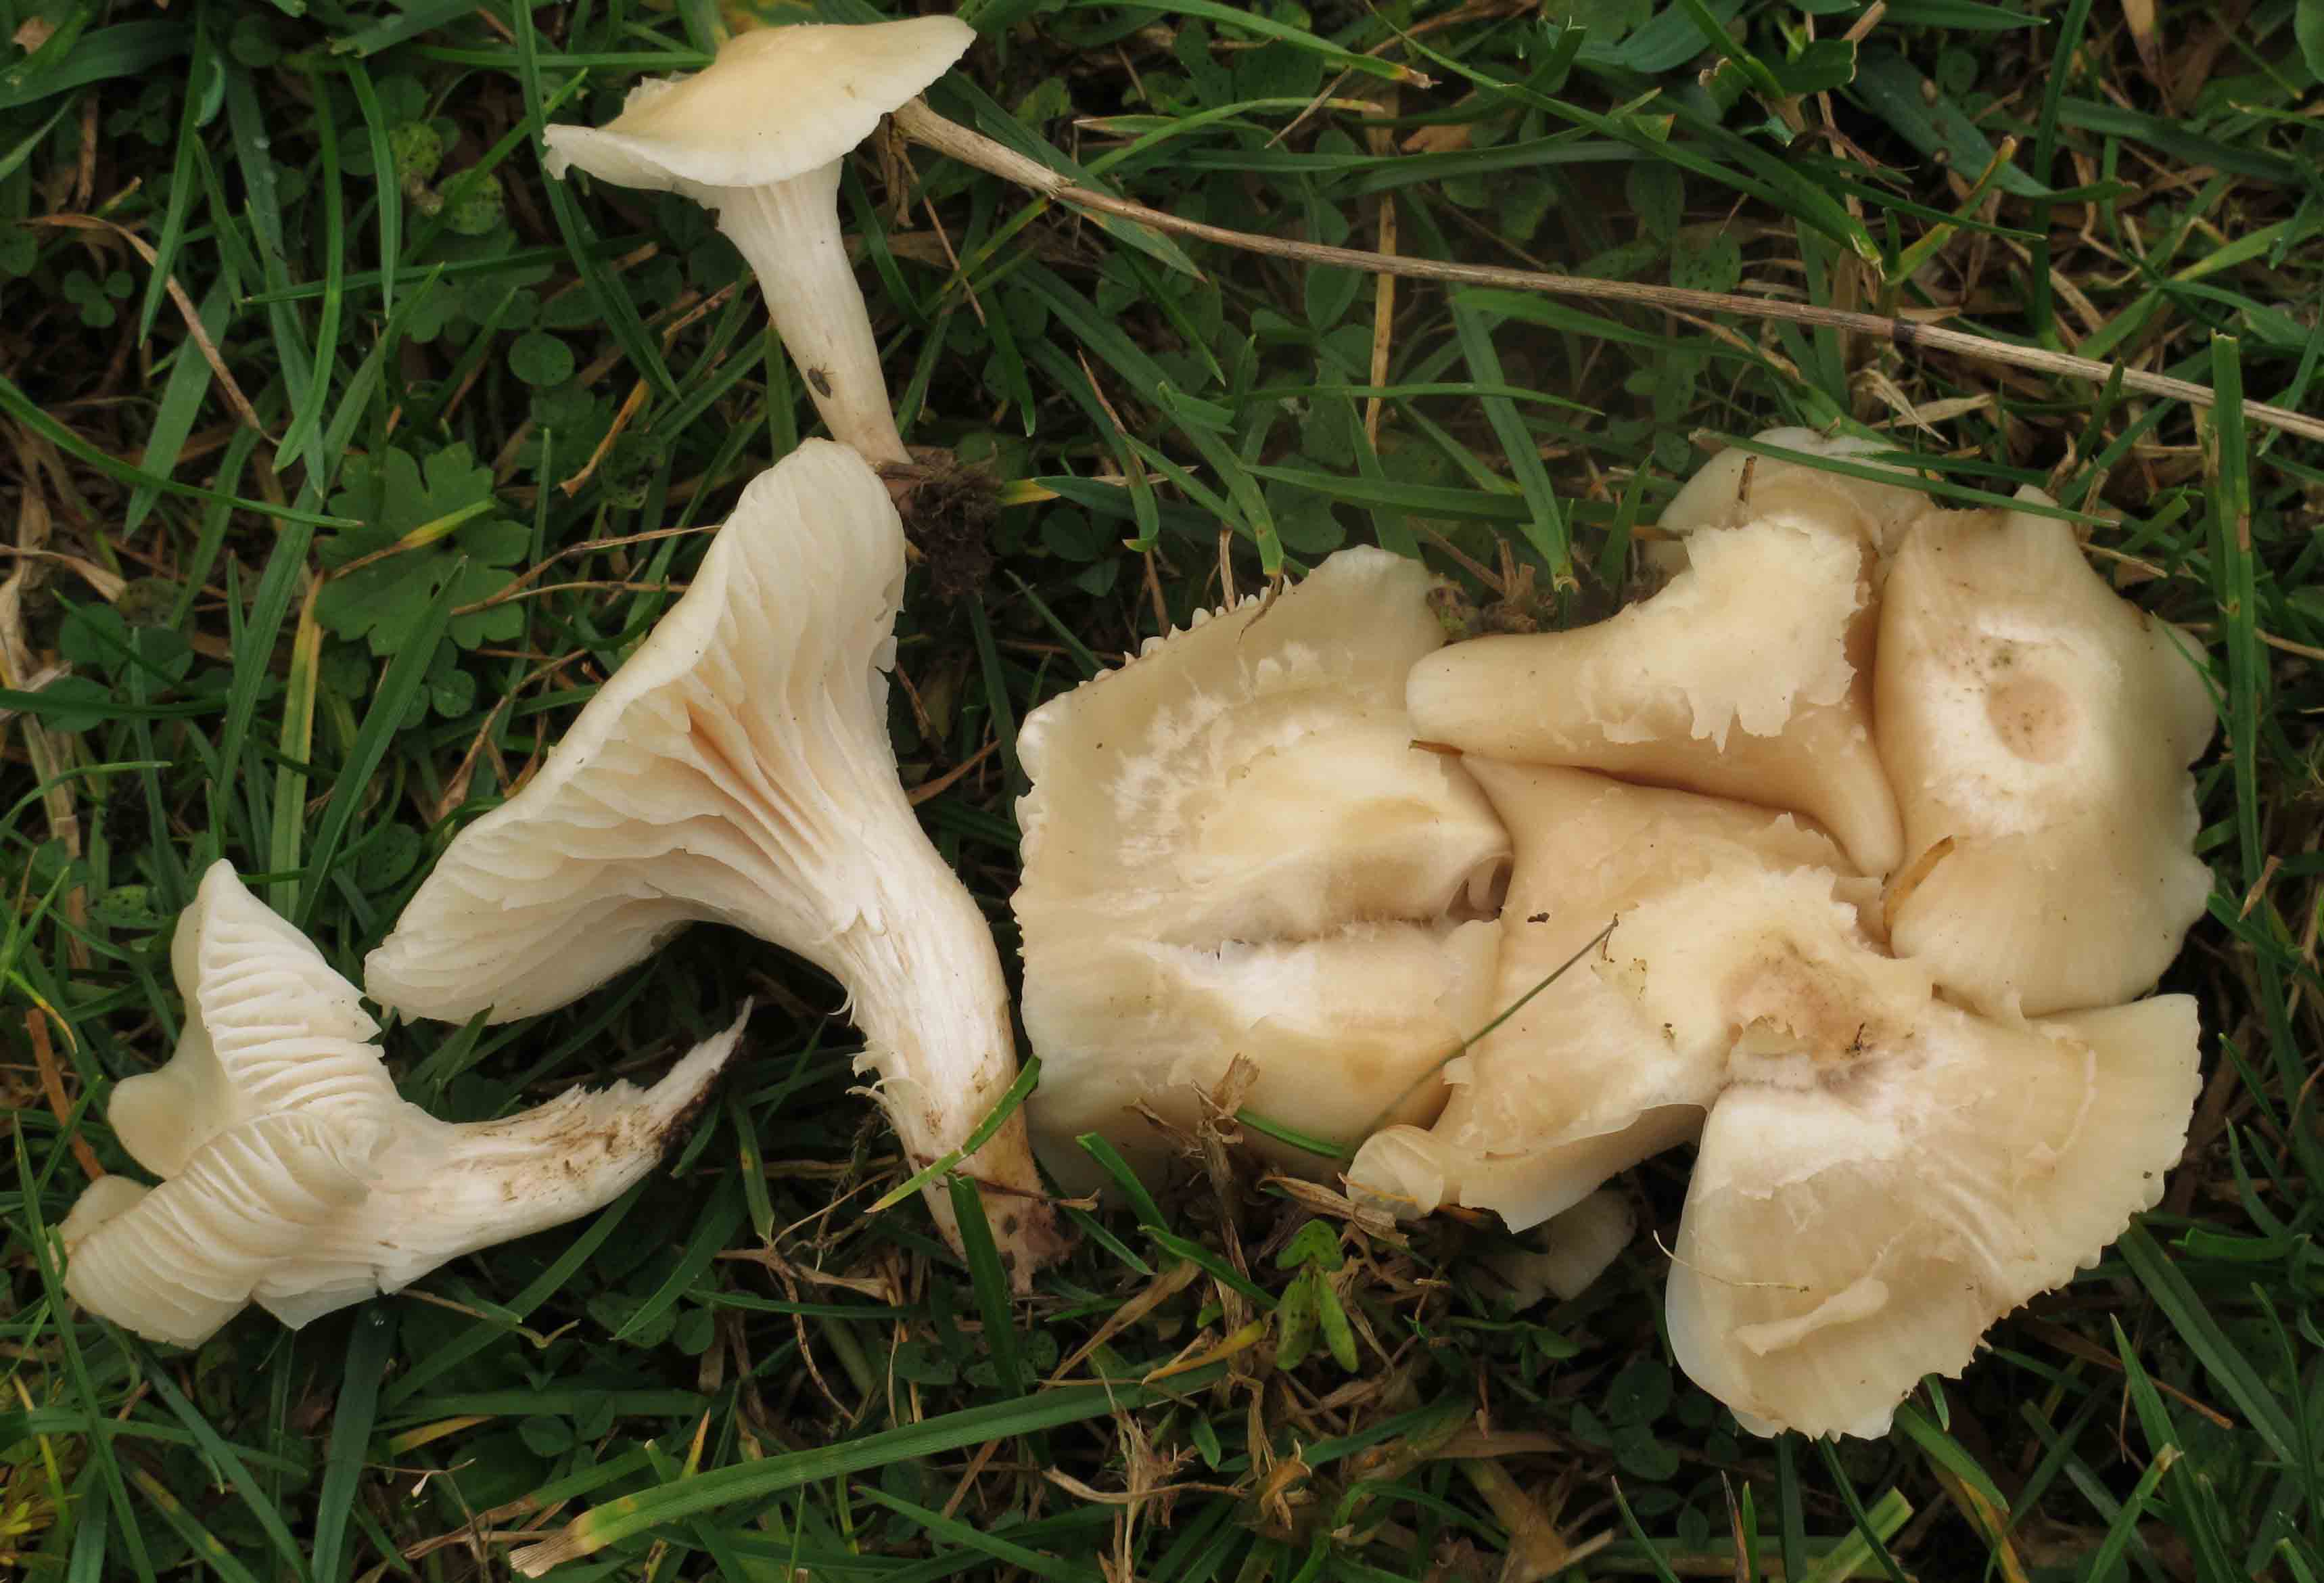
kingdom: Fungi
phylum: Basidiomycota
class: Agaricomycetes
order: Agaricales
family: Hygrophoraceae
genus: Cuphophyllus
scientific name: Cuphophyllus virgineus
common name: snehvid vokshat
